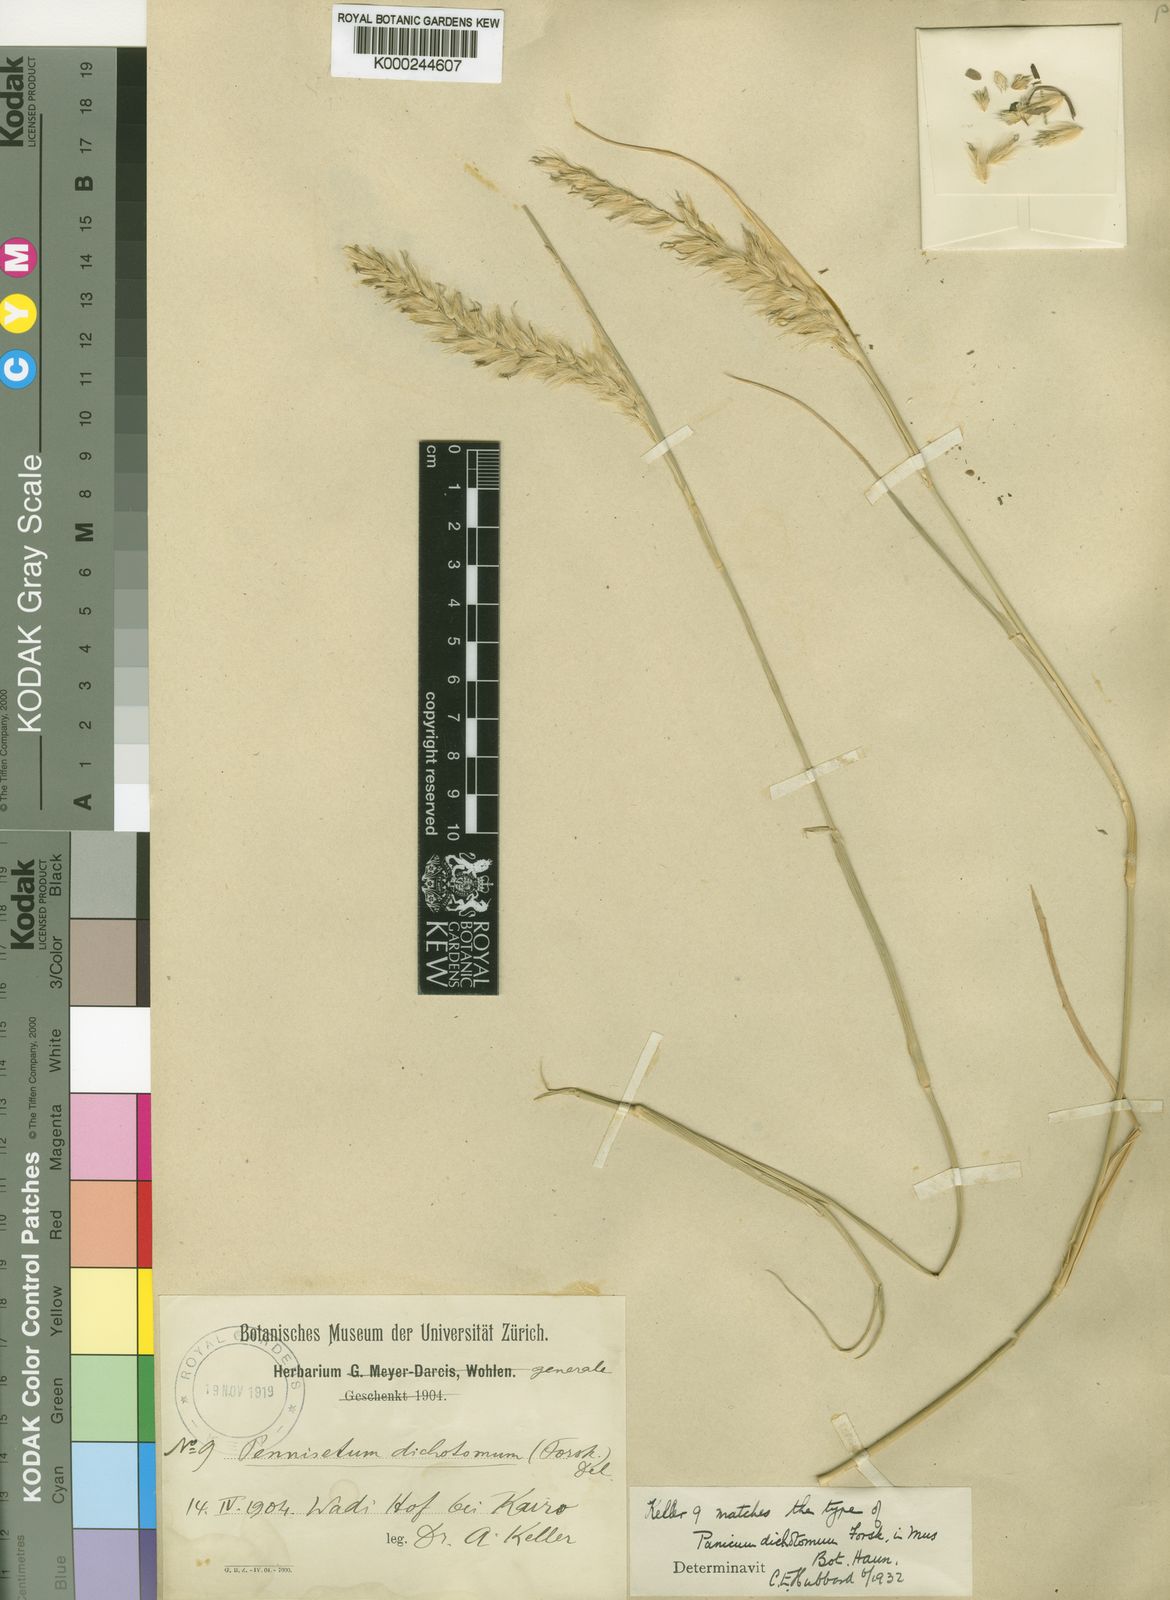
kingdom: Plantae
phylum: Tracheophyta
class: Liliopsida
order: Poales
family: Poaceae
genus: Cenchrus
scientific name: Cenchrus divisus
